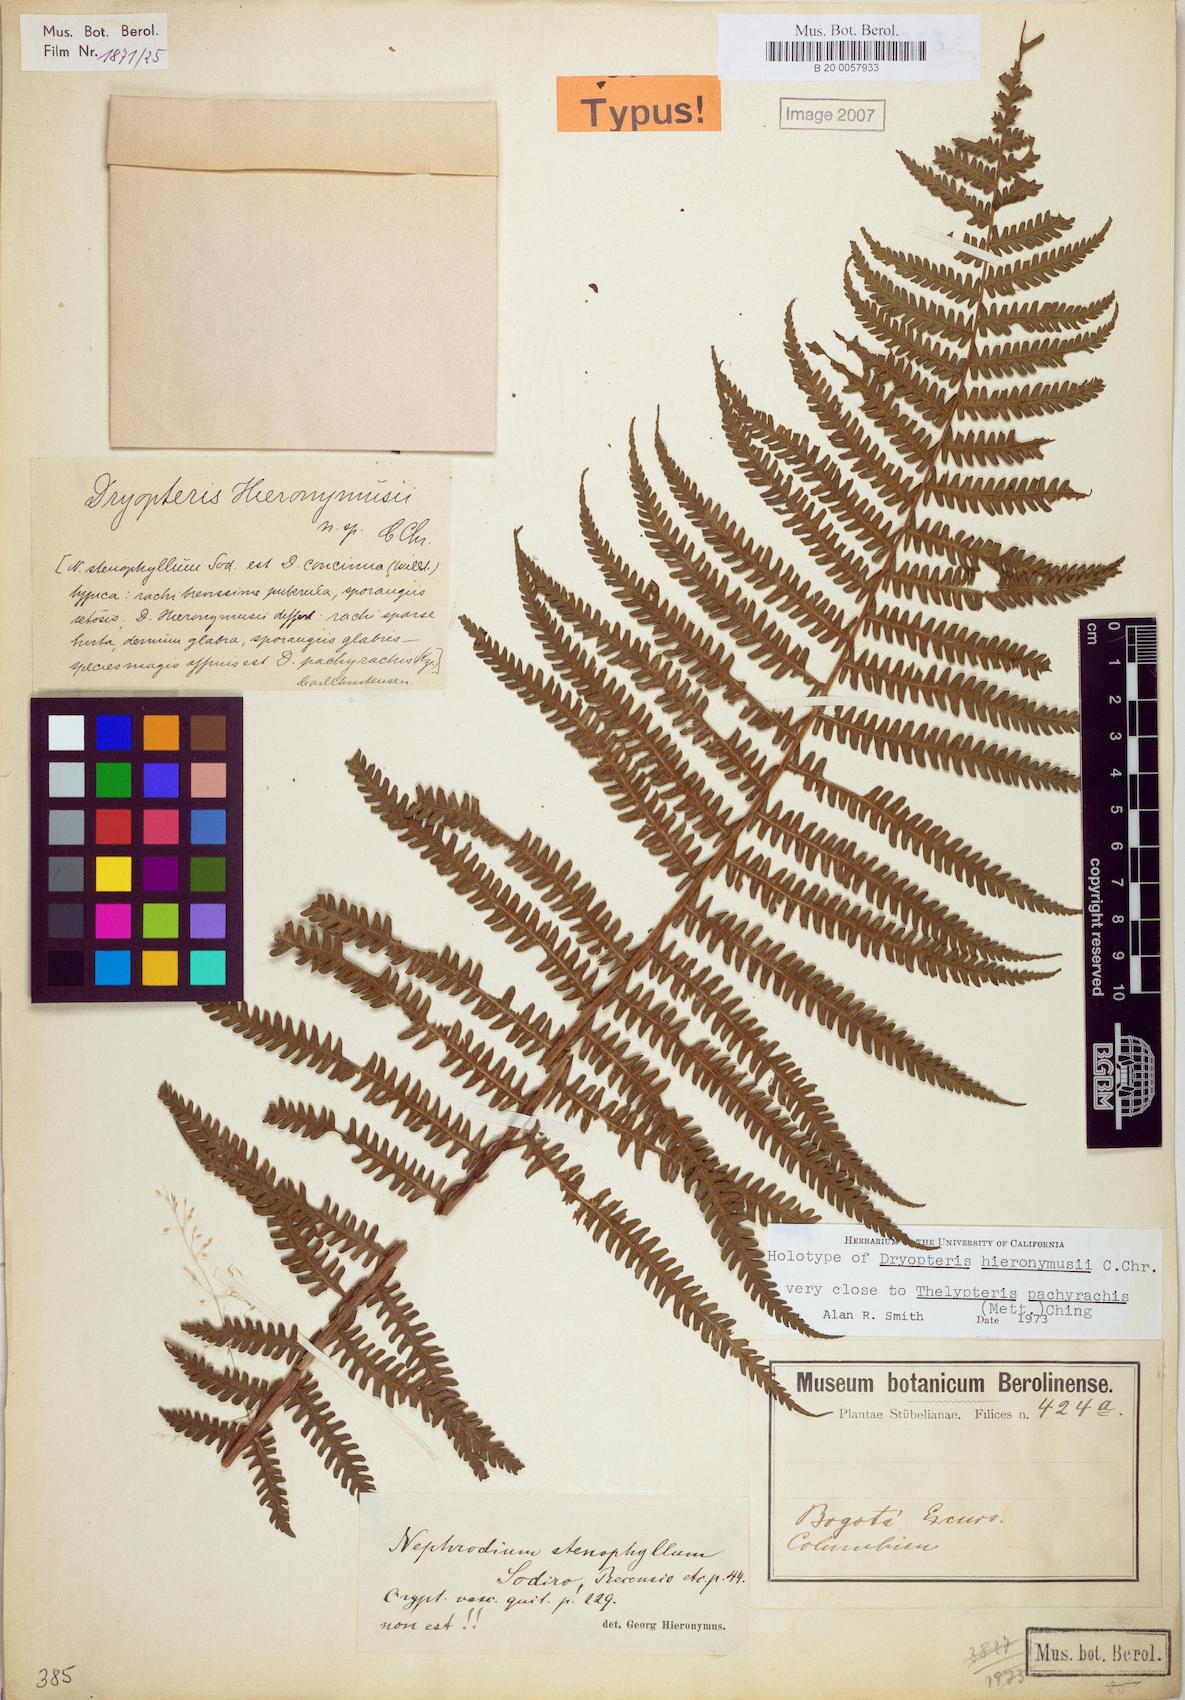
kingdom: Plantae
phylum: Tracheophyta
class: Polypodiopsida
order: Polypodiales
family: Thelypteridaceae
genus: Amauropelta
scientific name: Amauropelta pachyrhachis
